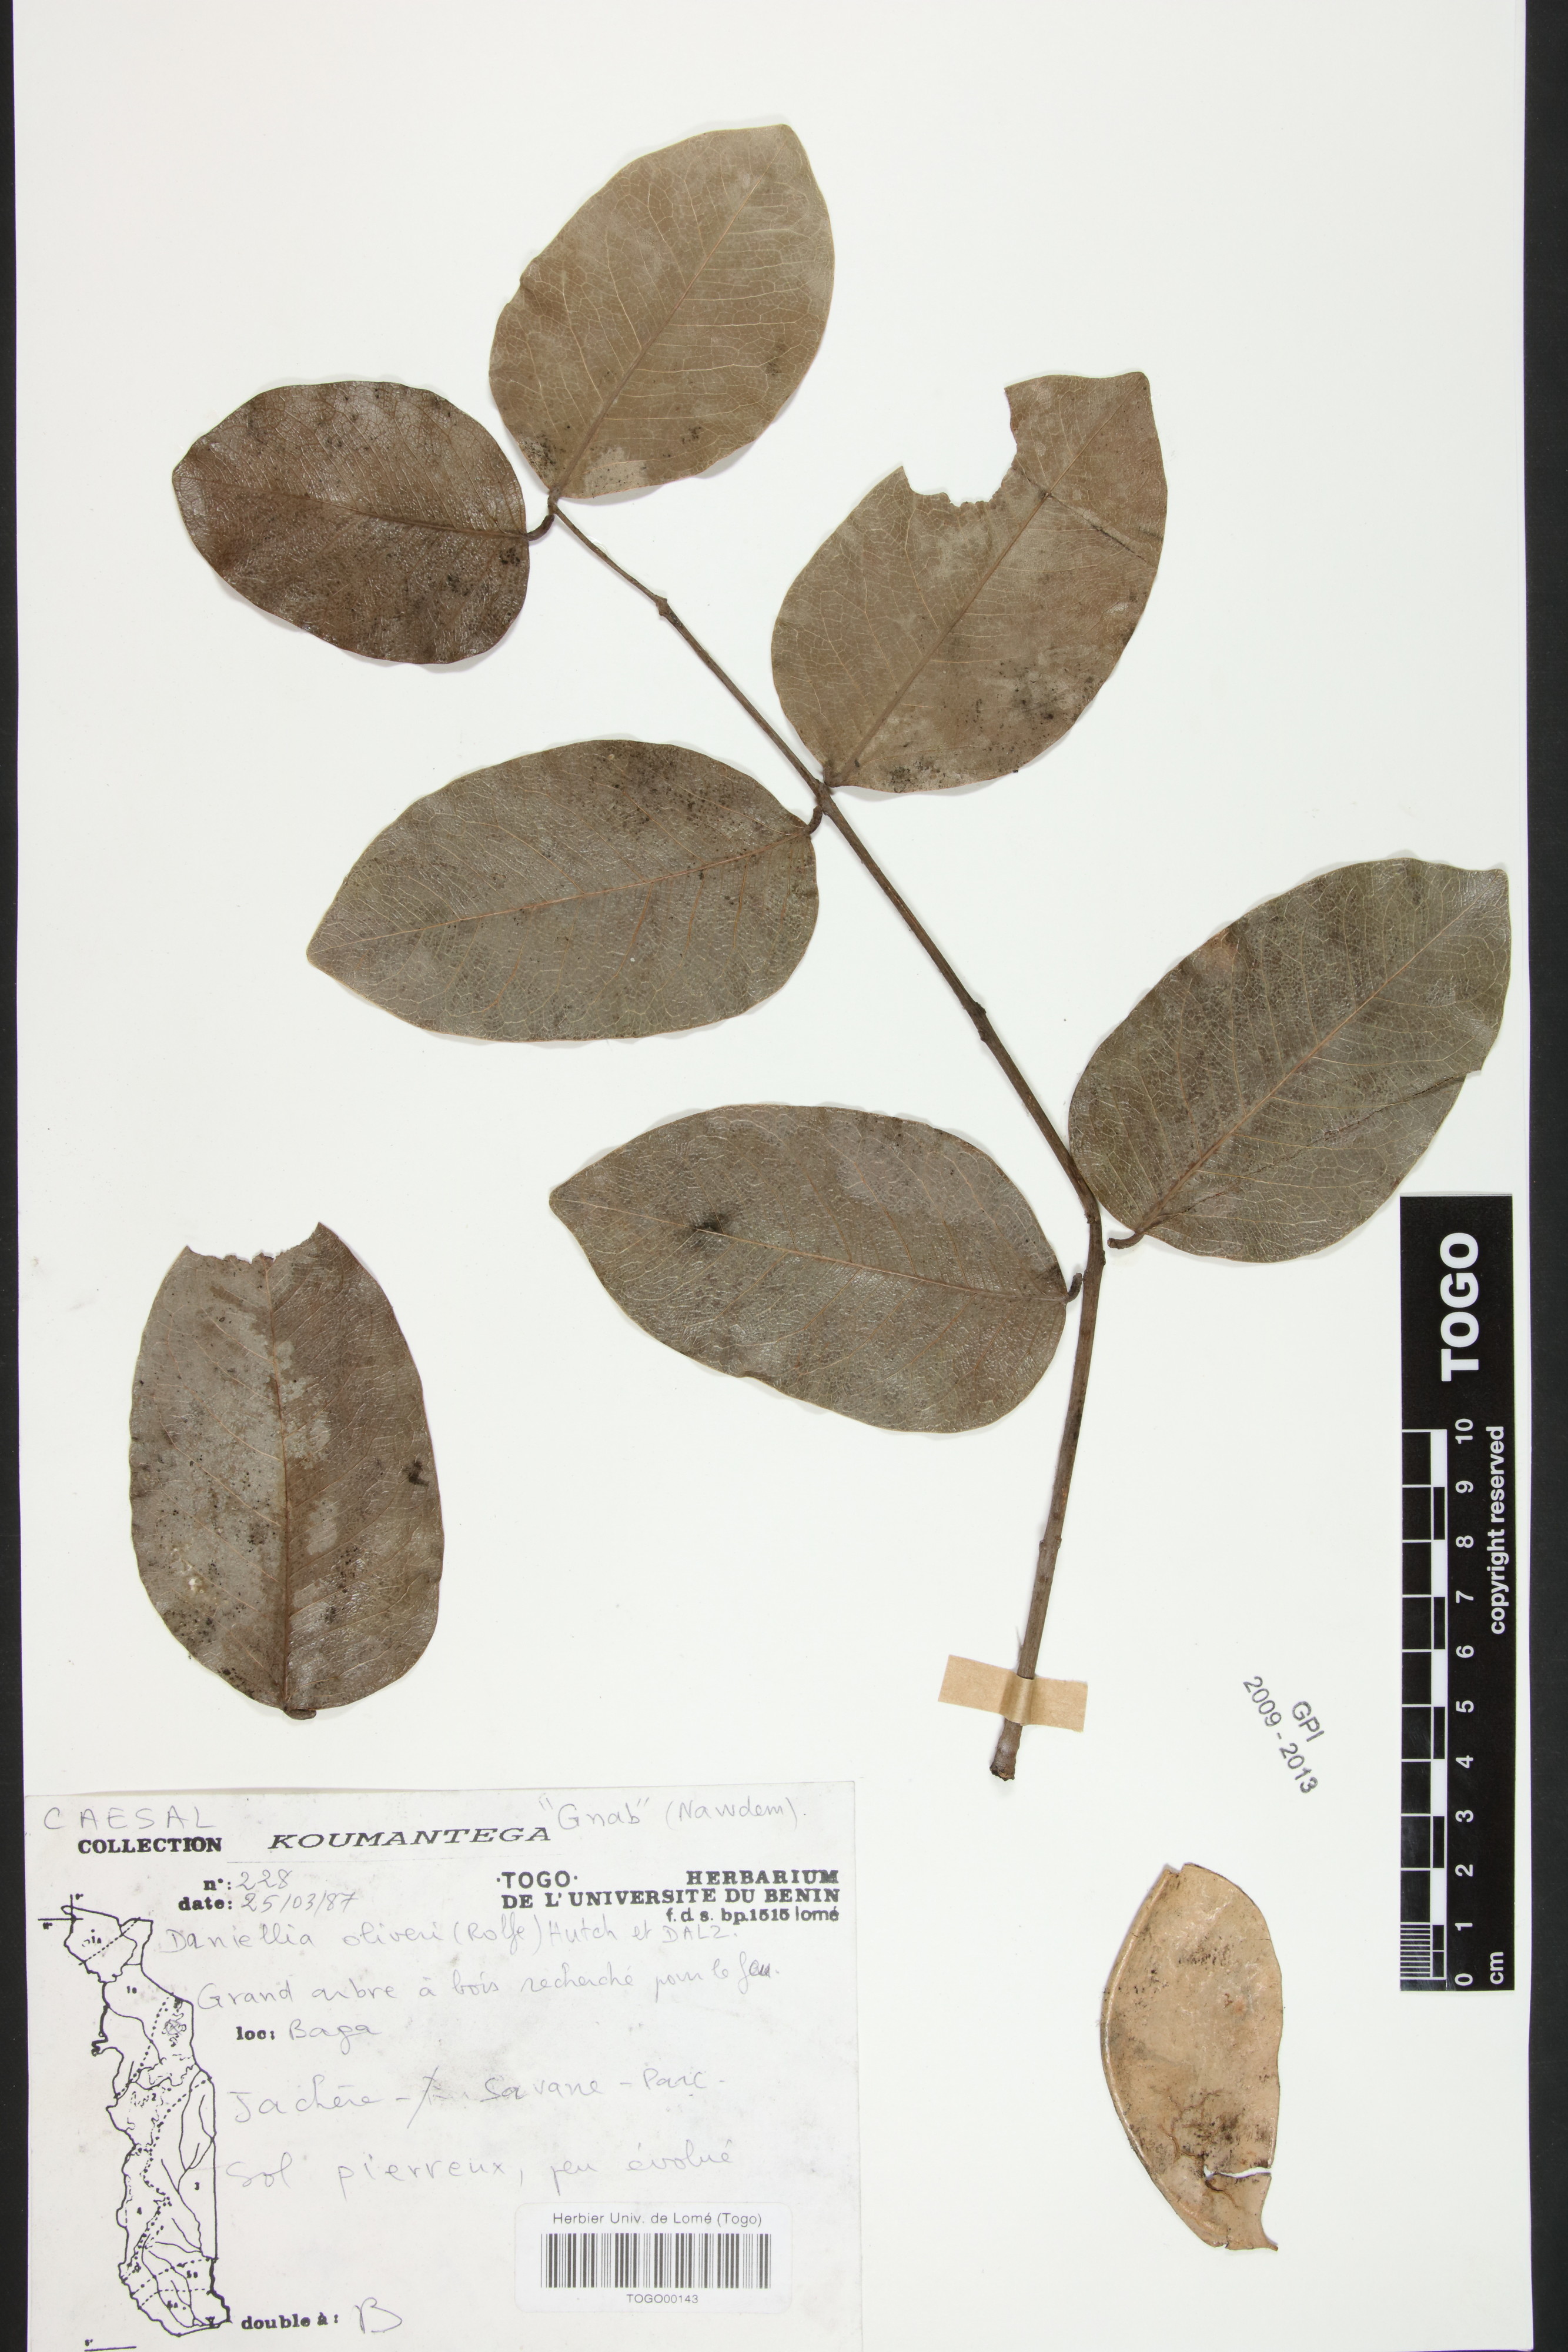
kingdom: Plantae
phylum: Tracheophyta
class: Magnoliopsida
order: Fabales
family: Fabaceae
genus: Daniellia
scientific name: Daniellia oliveri
